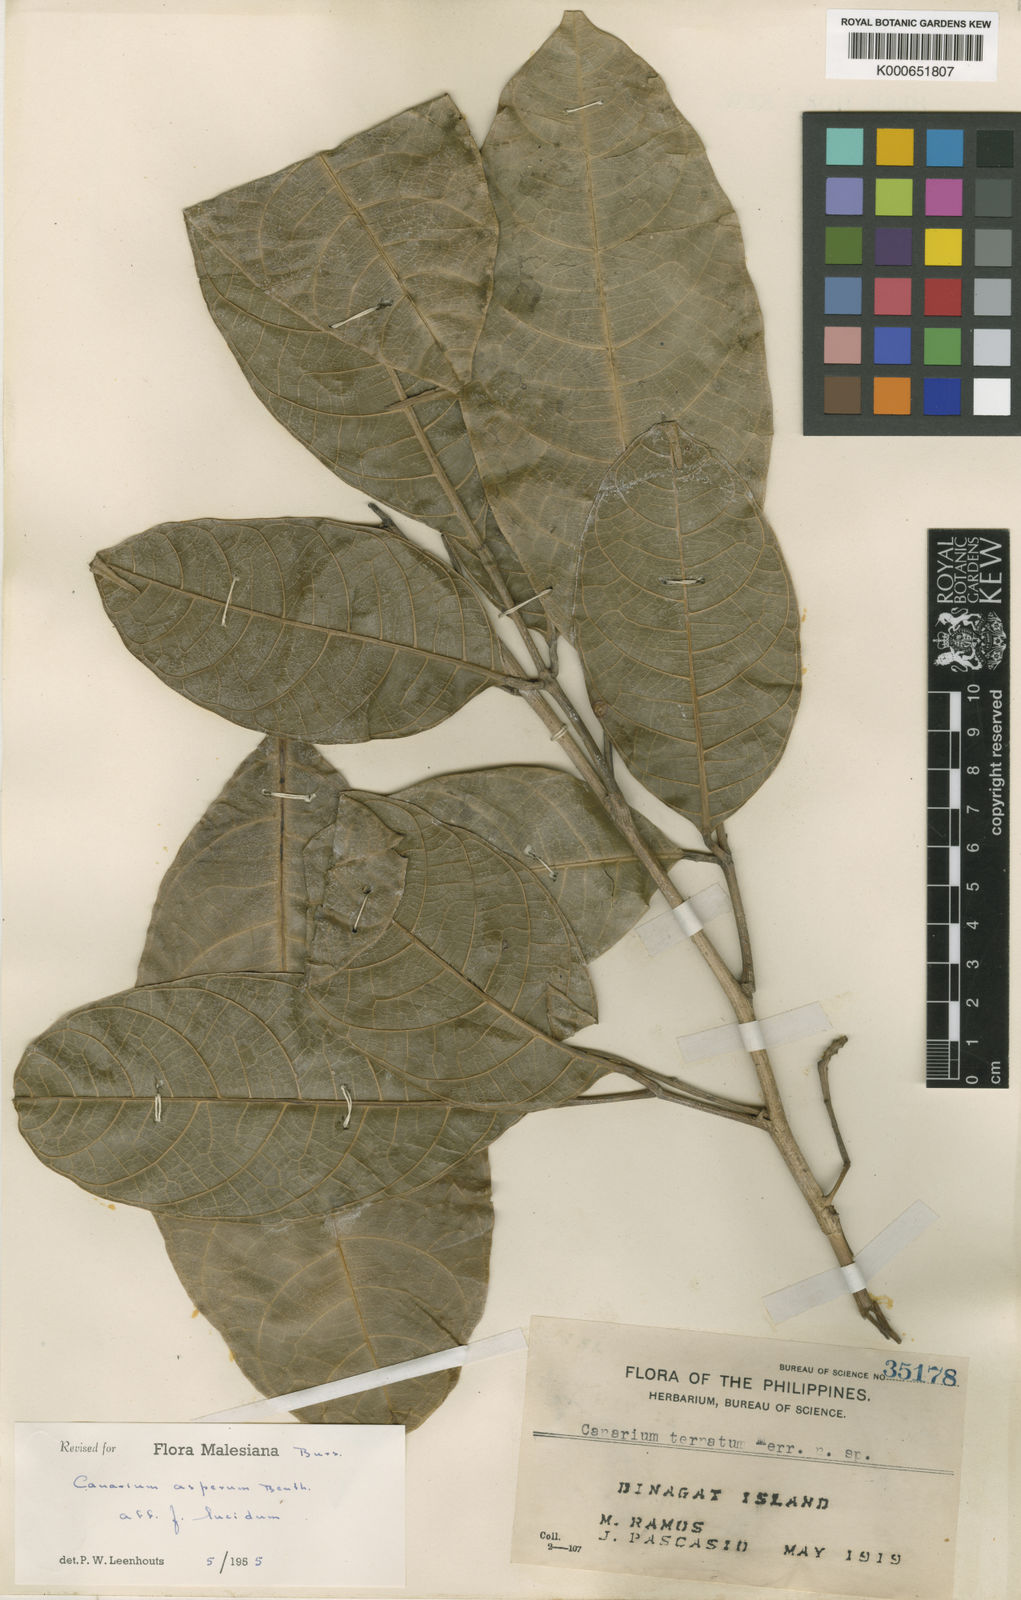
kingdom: Plantae
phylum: Tracheophyta
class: Magnoliopsida
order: Sapindales
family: Burseraceae
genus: Canarium
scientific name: Canarium asperum
